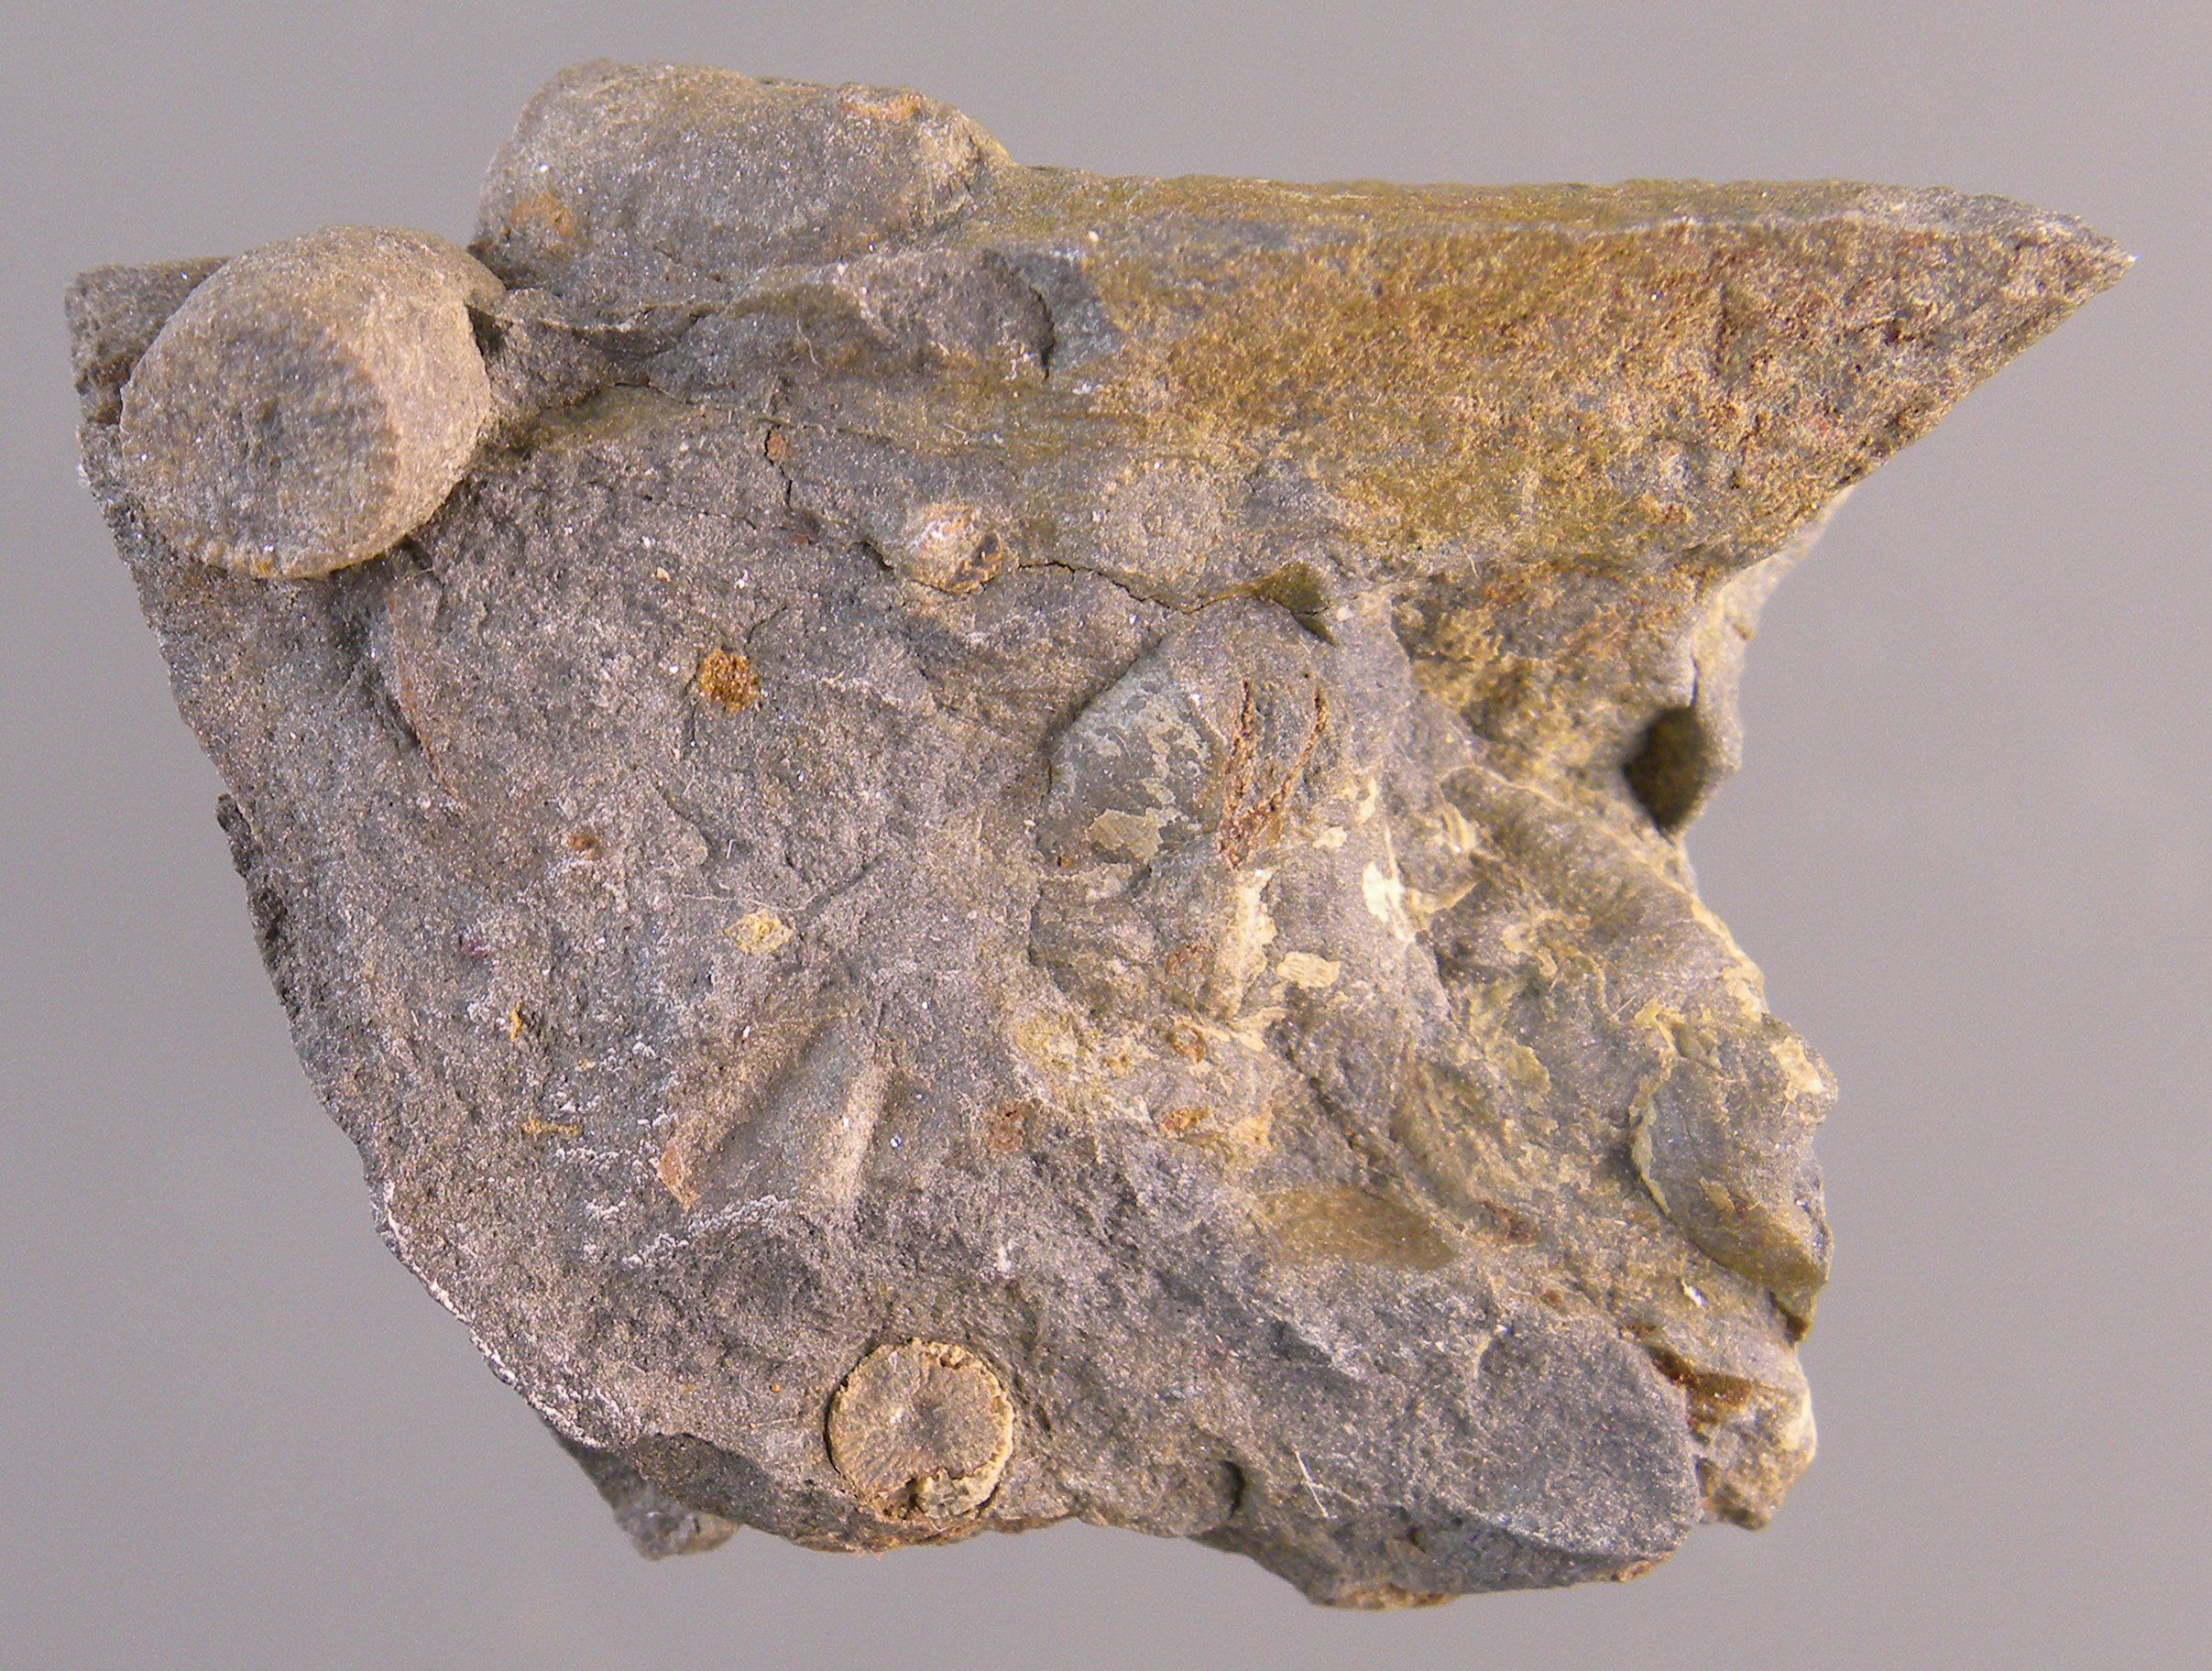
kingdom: Animalia
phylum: Echinodermata
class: Crinoidea
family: Botryocrinidae
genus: Botryocrinus
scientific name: Botryocrinus
